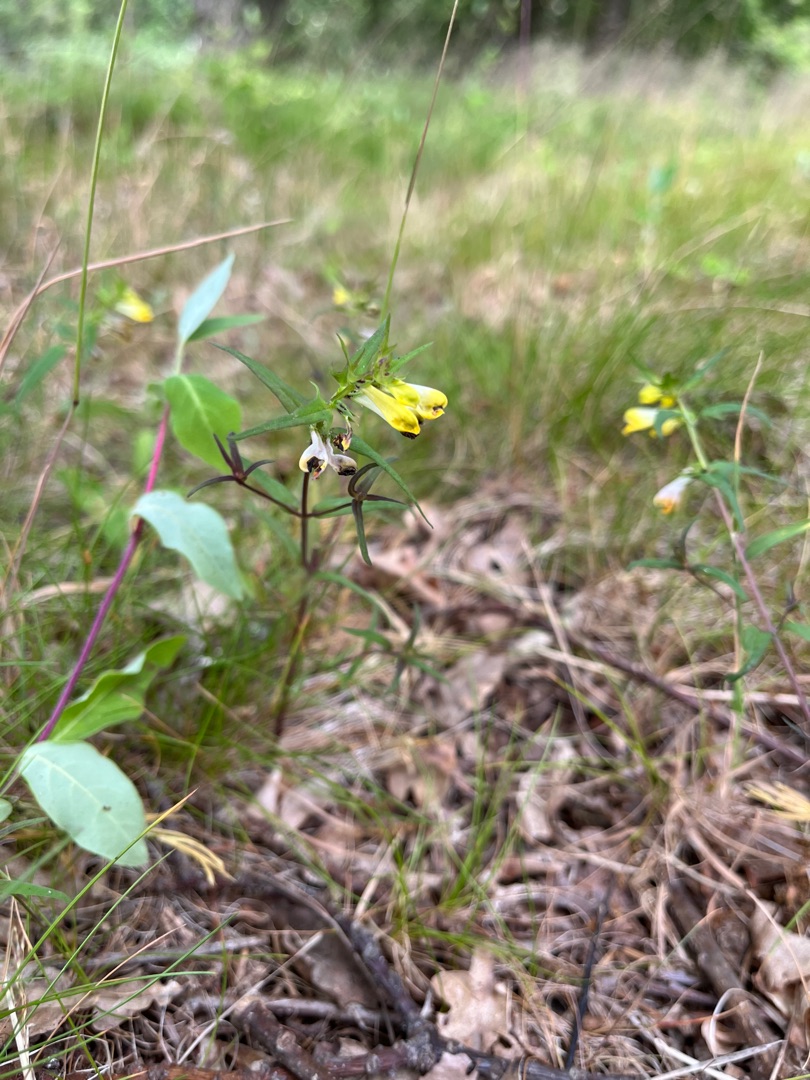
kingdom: Plantae
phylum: Tracheophyta
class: Magnoliopsida
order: Lamiales
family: Orobanchaceae
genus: Melampyrum
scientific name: Melampyrum pratense
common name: Almindelig kohvede
